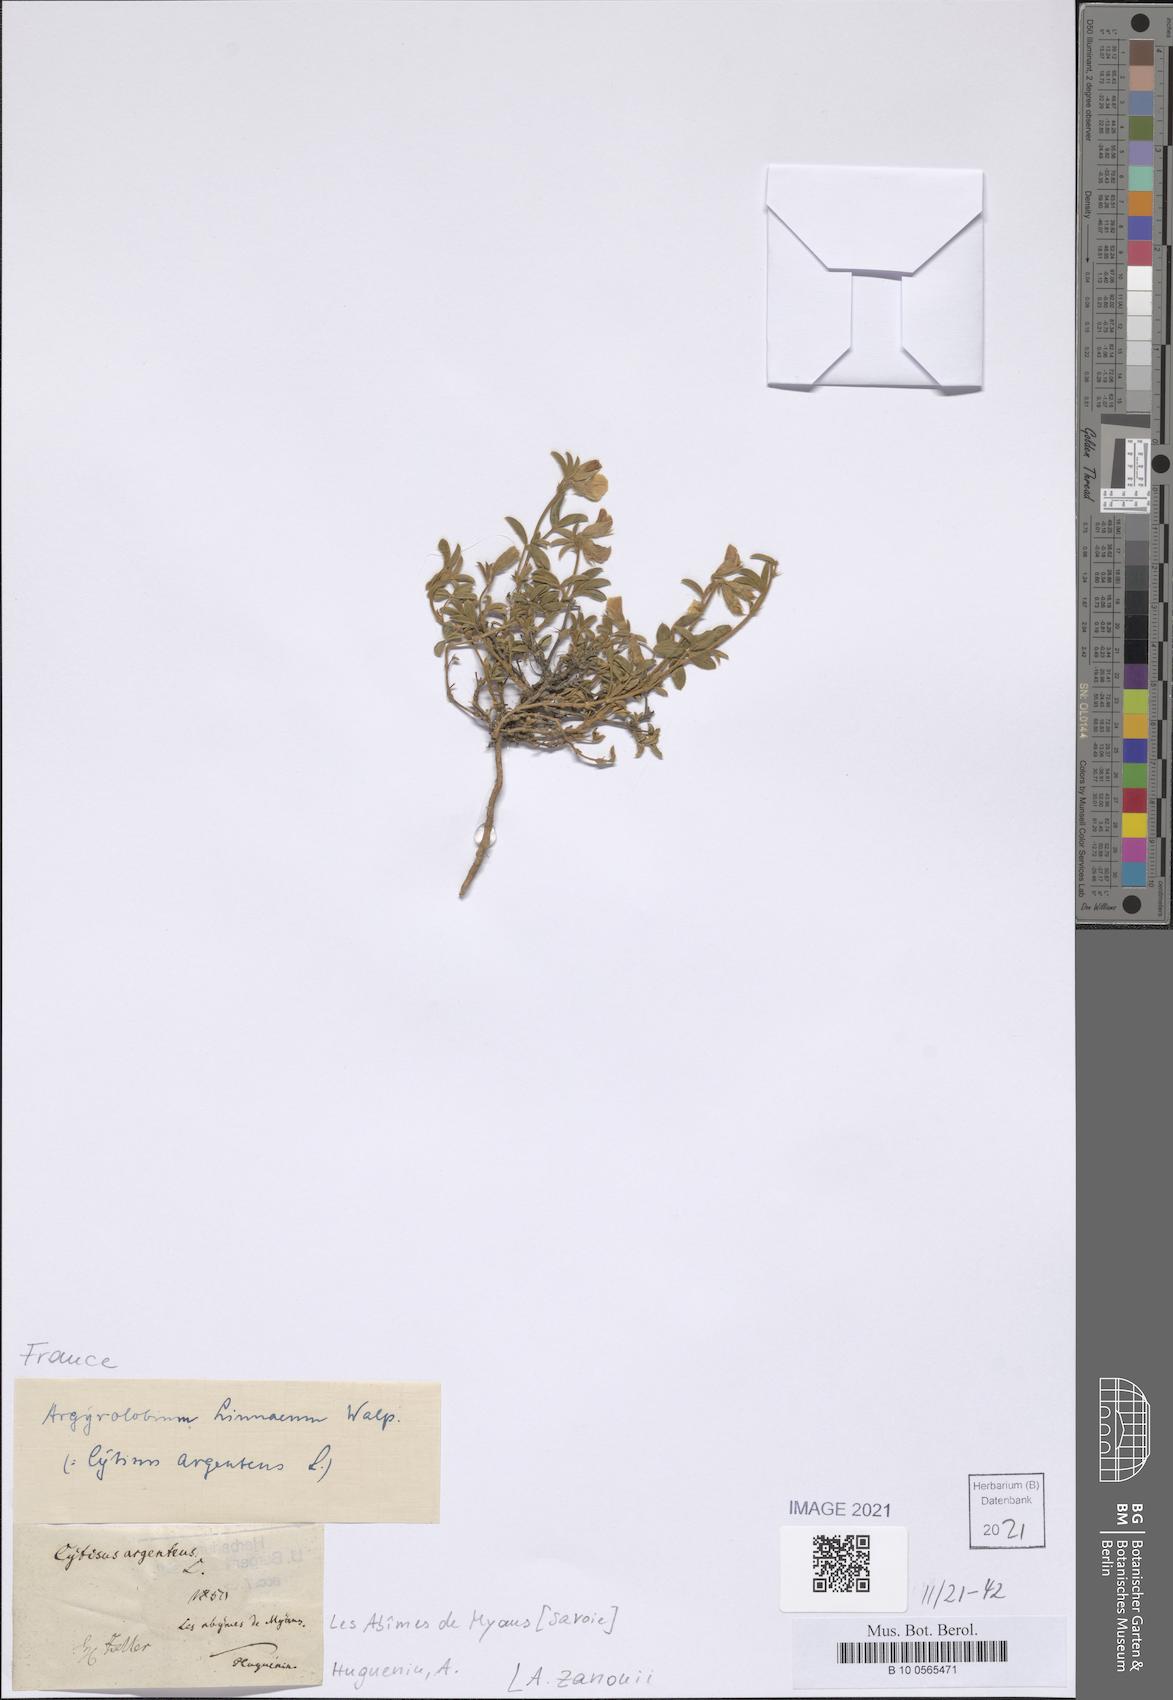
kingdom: Plantae
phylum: Tracheophyta
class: Magnoliopsida
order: Fabales
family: Fabaceae
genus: Argyrolobium
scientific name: Argyrolobium zanonii
